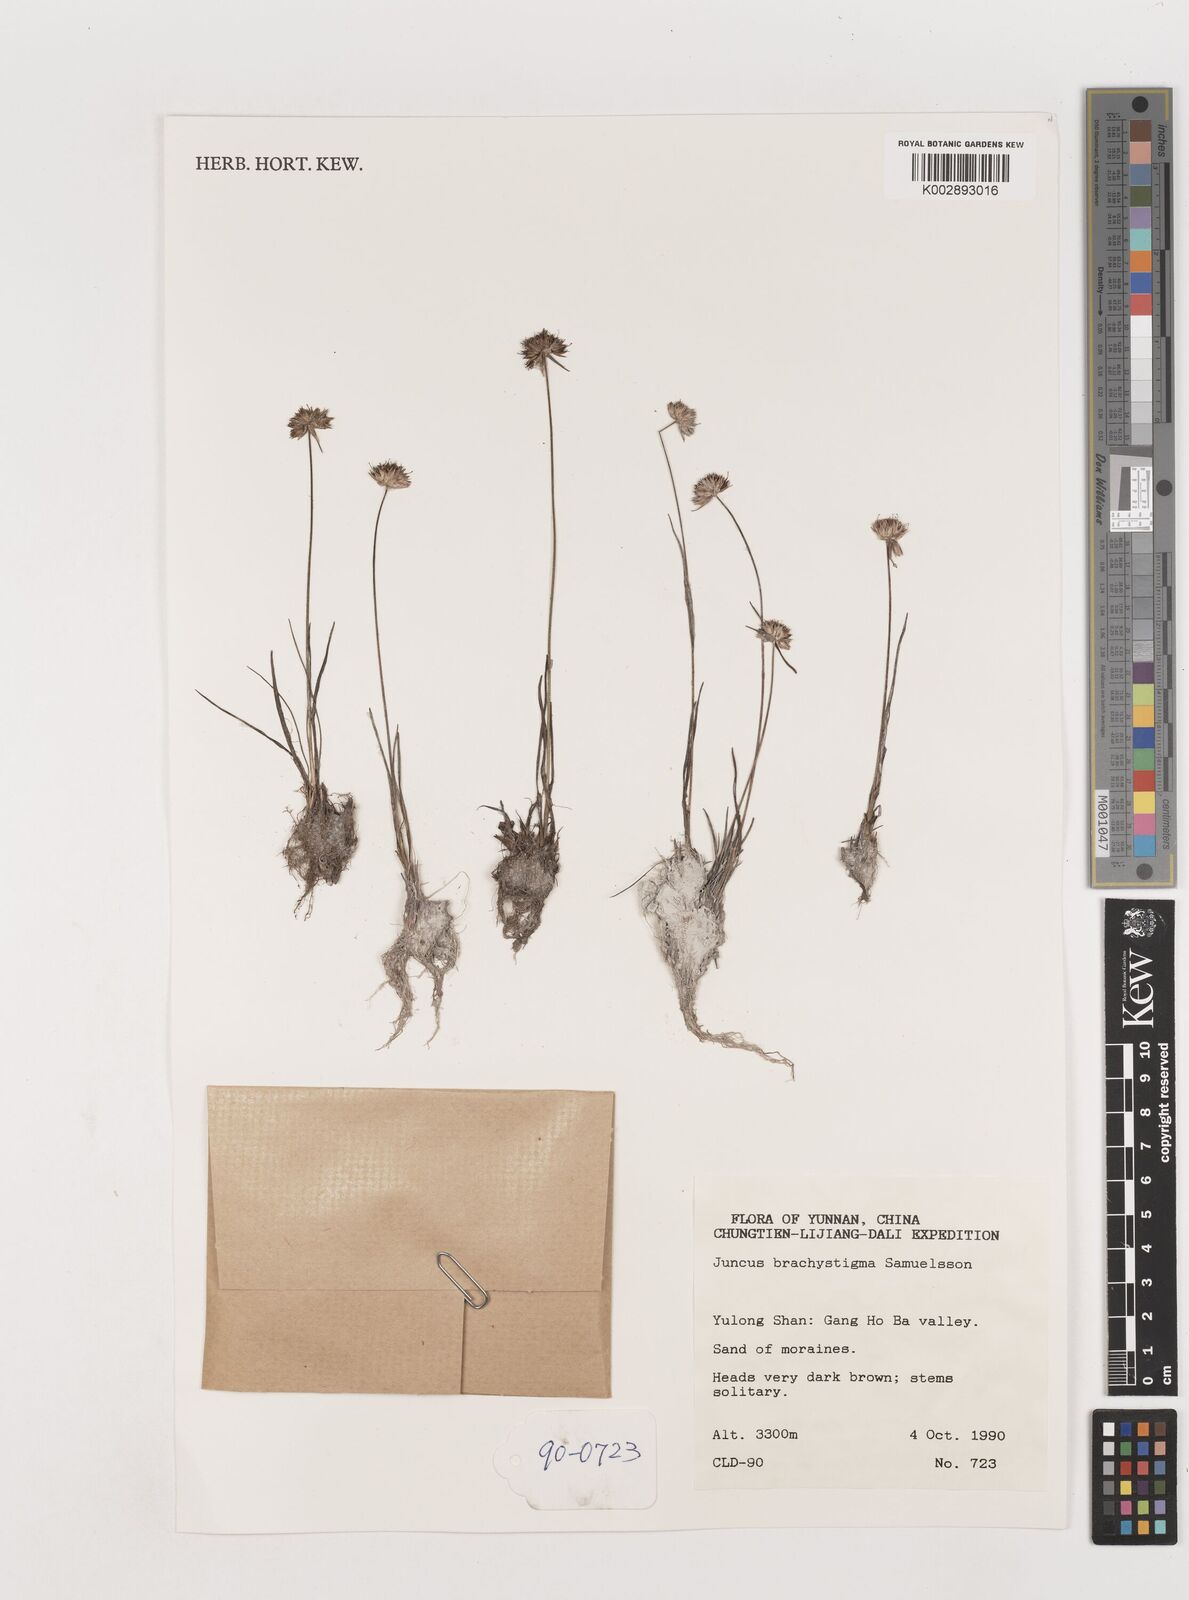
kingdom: Plantae
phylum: Tracheophyta
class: Liliopsida
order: Poales
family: Juncaceae
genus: Juncus
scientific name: Juncus brachystigma
